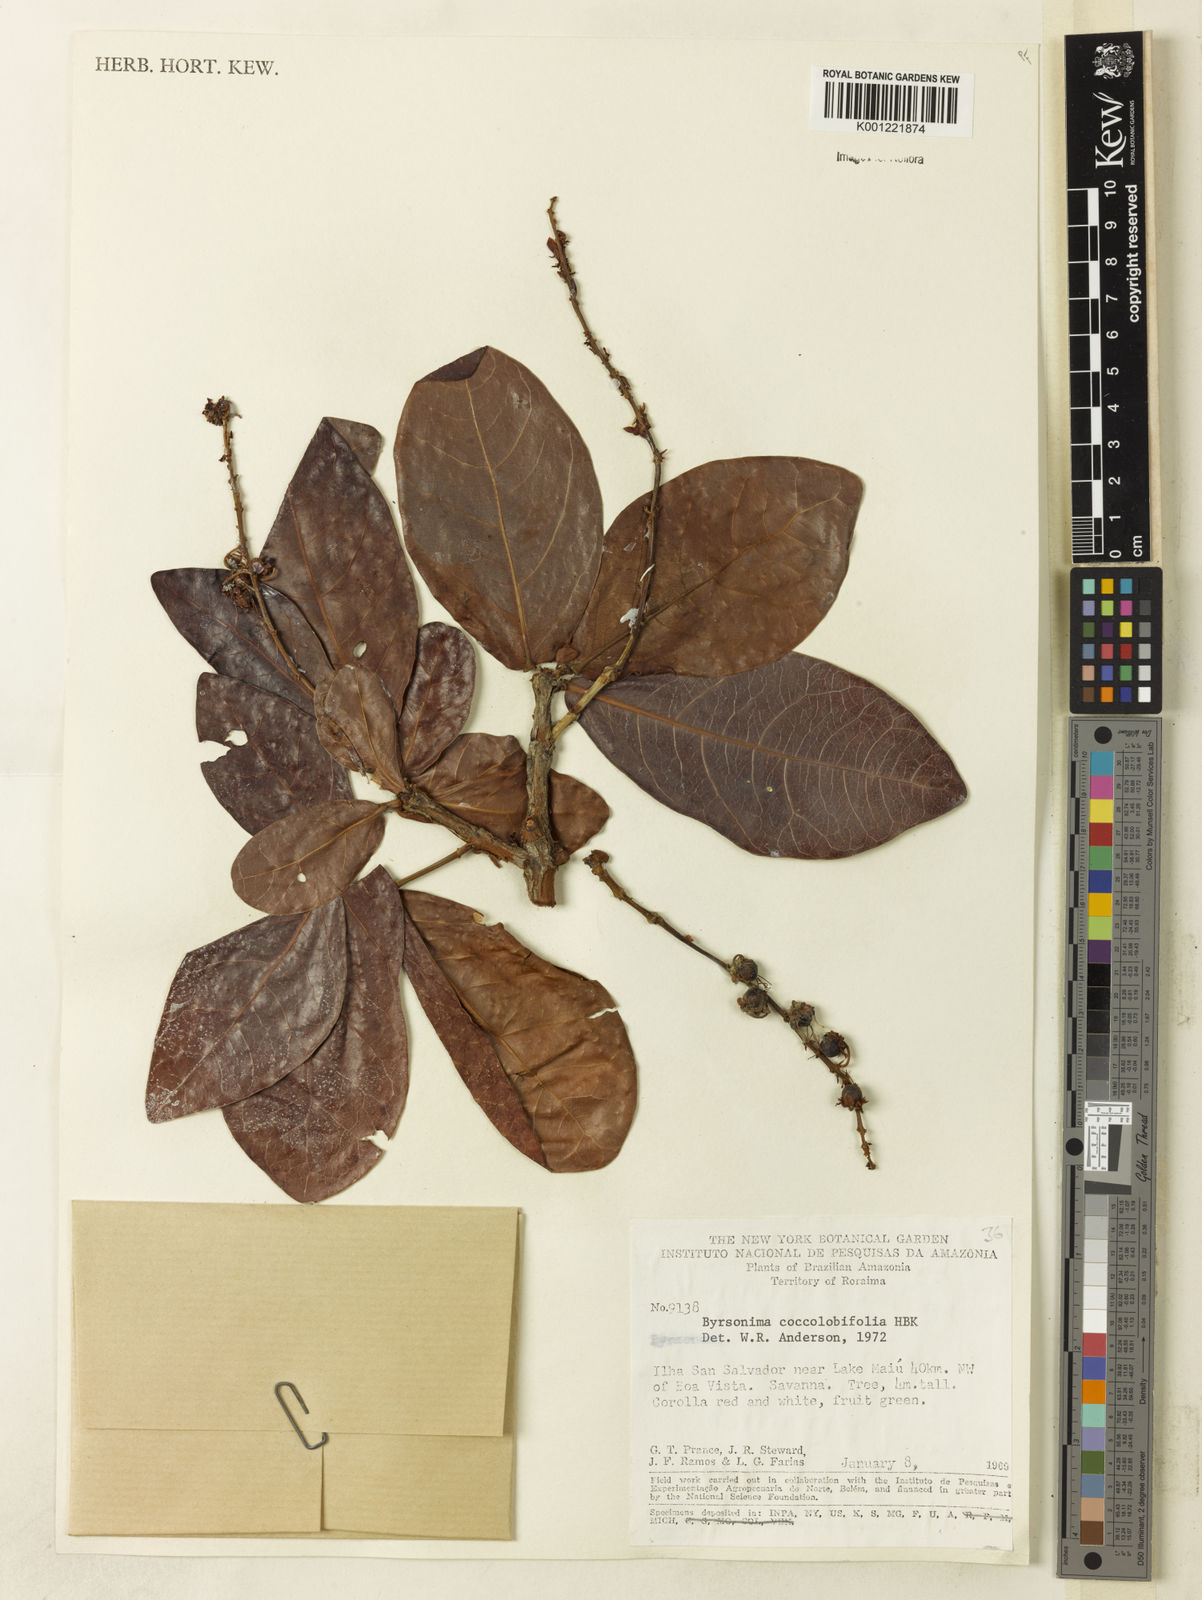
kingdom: Plantae
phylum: Tracheophyta
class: Magnoliopsida
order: Malpighiales
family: Malpighiaceae
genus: Byrsonima
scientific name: Byrsonima coccolobifolia
